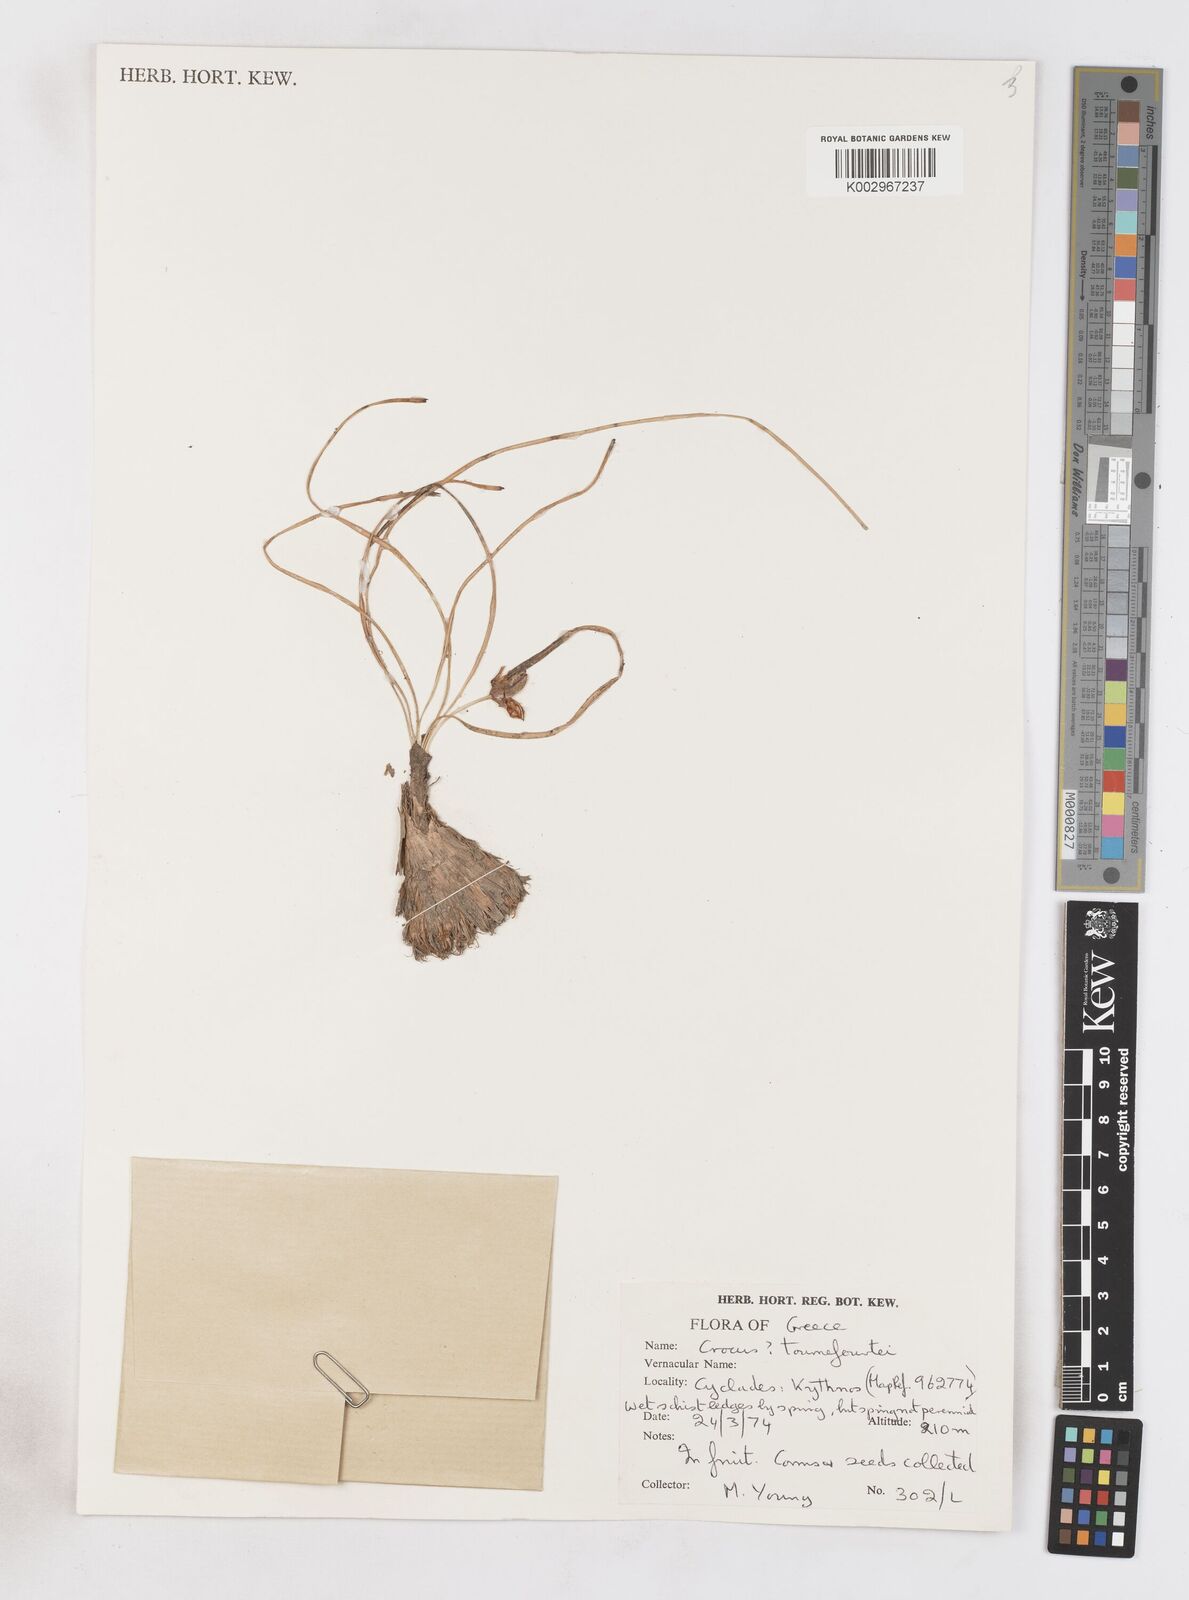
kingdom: Plantae
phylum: Tracheophyta
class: Liliopsida
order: Asparagales
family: Iridaceae
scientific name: Iridaceae
